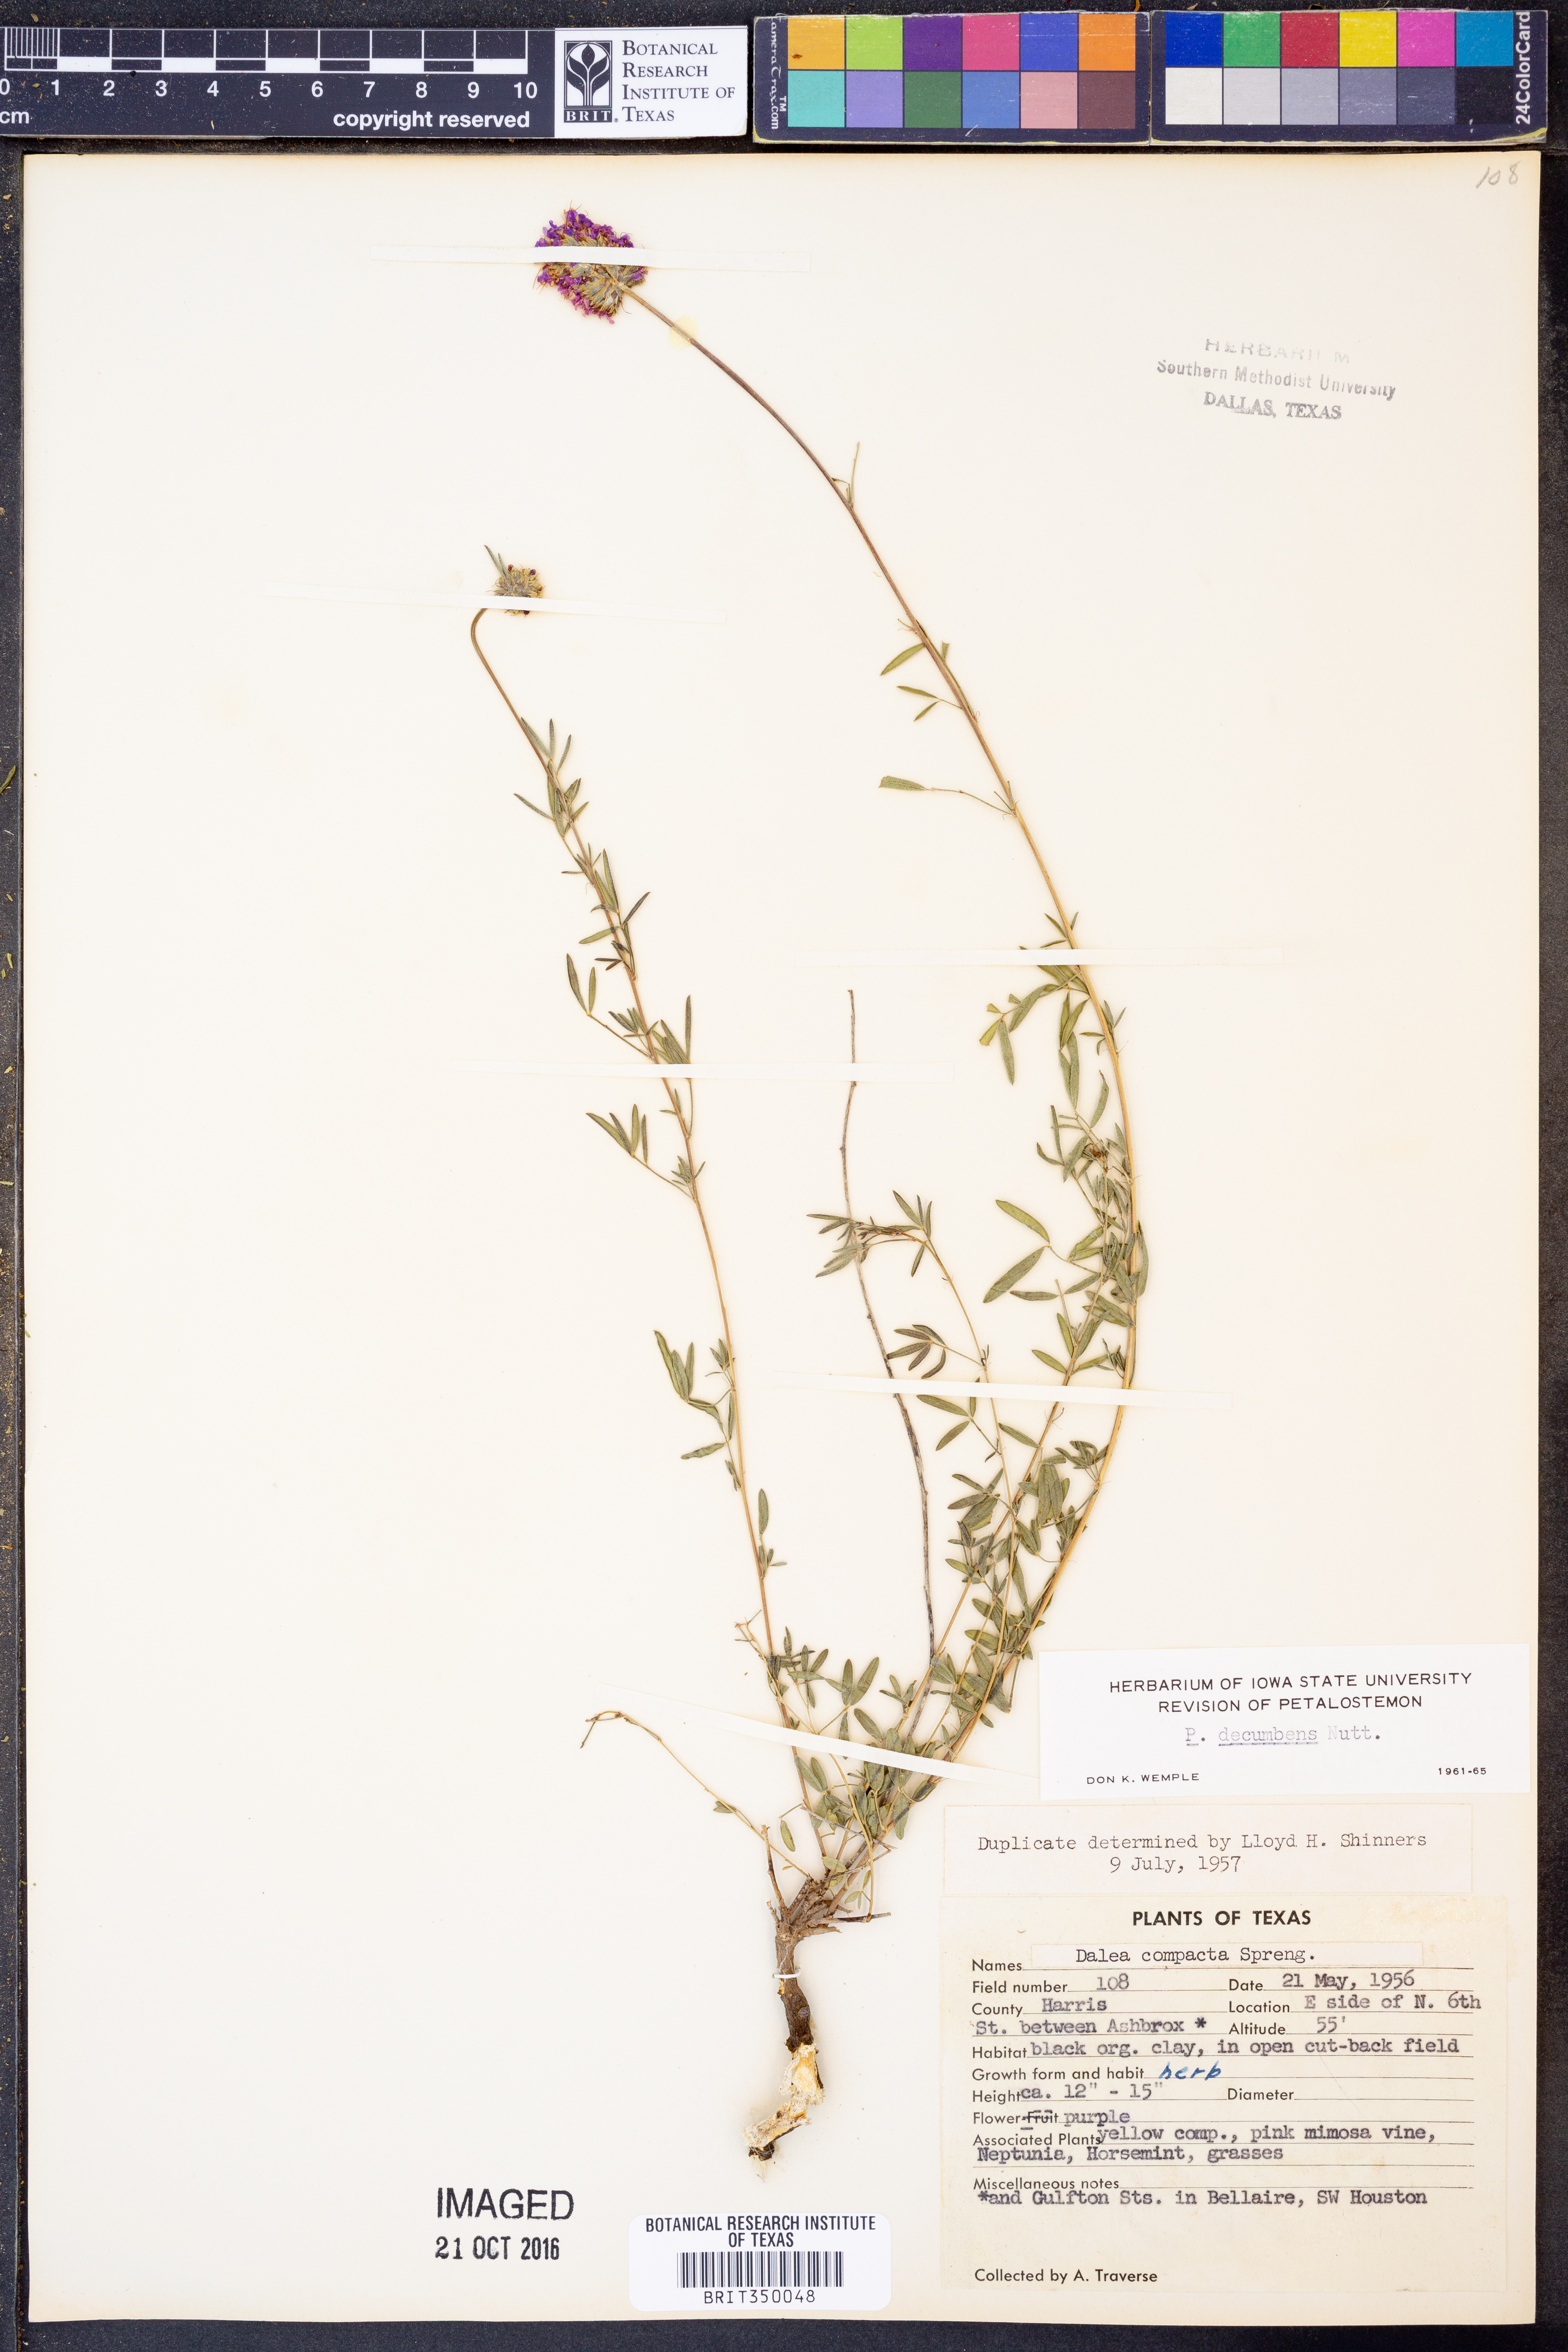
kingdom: Plantae
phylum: Tracheophyta
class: Magnoliopsida
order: Fabales
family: Fabaceae
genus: Dalea
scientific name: Dalea compacta
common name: Compact prairie-clover
